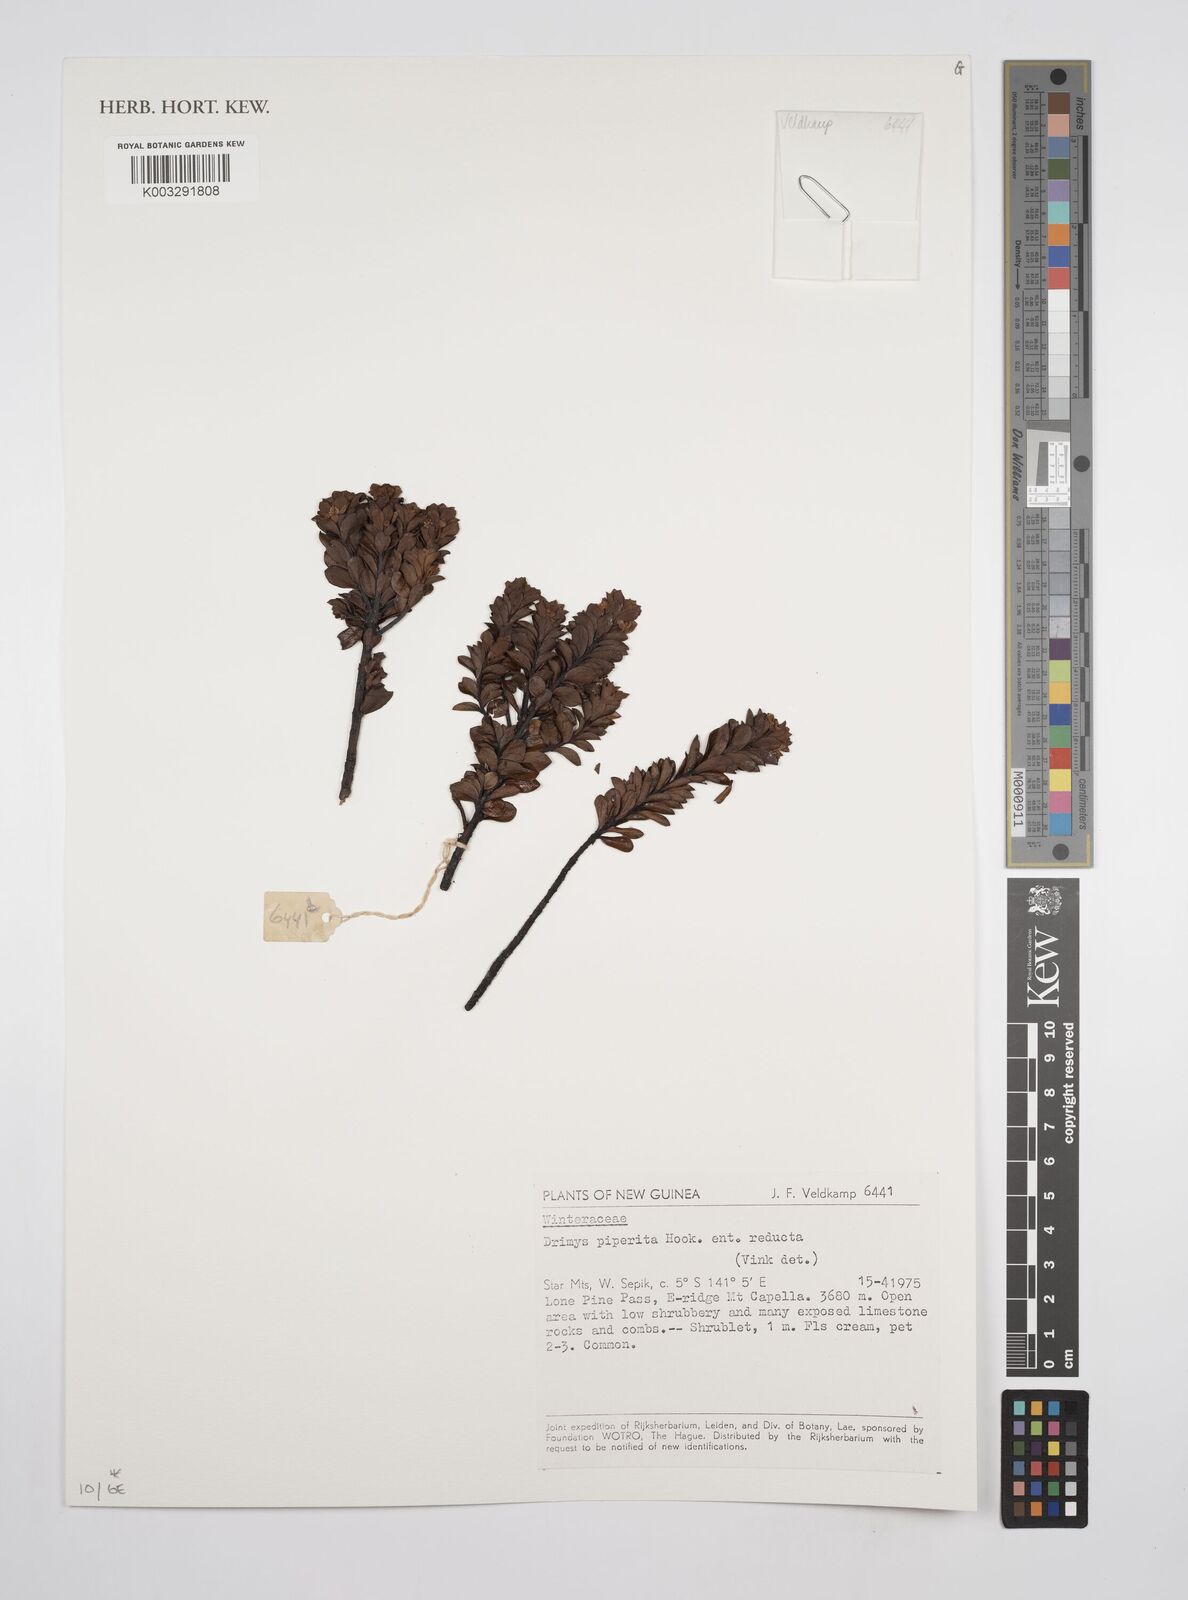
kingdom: Plantae
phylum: Tracheophyta
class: Magnoliopsida
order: Canellales
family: Winteraceae
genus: Drimys
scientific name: Drimys piperita
